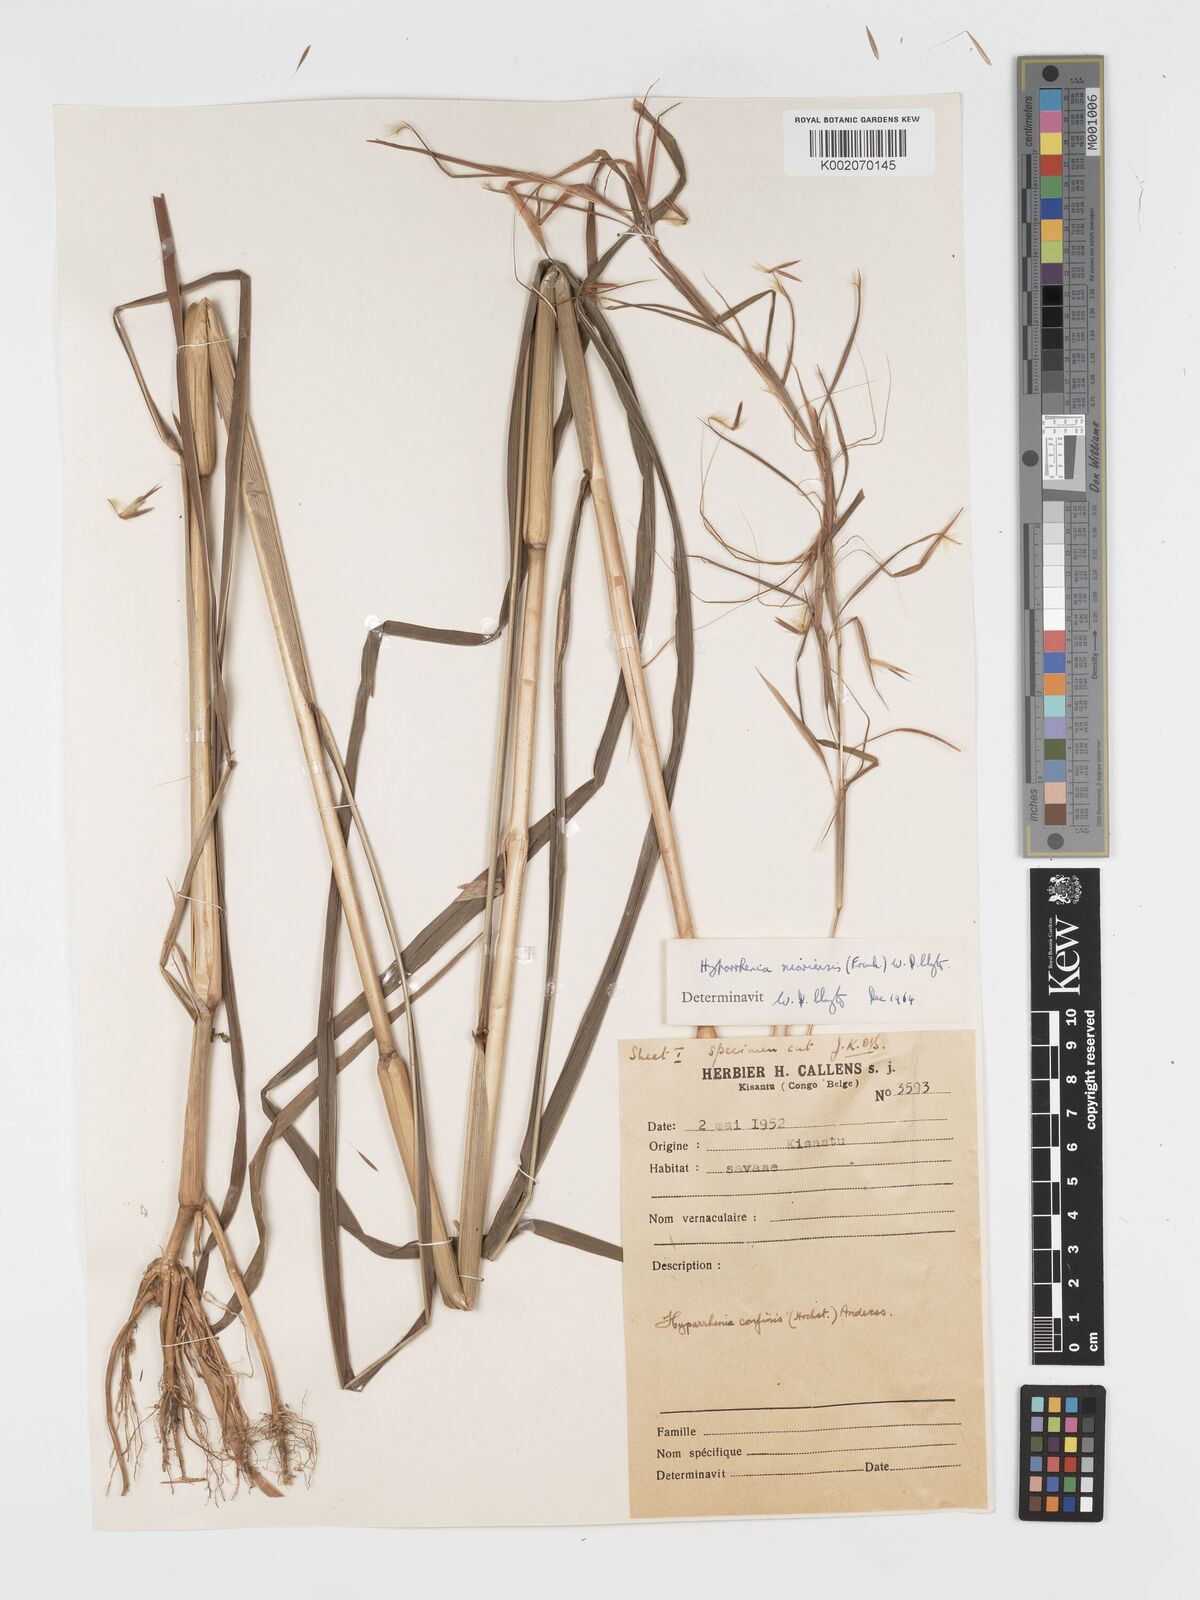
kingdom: Plantae
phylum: Tracheophyta
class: Liliopsida
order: Poales
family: Poaceae
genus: Hyparrhenia
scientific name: Hyparrhenia niariensis
